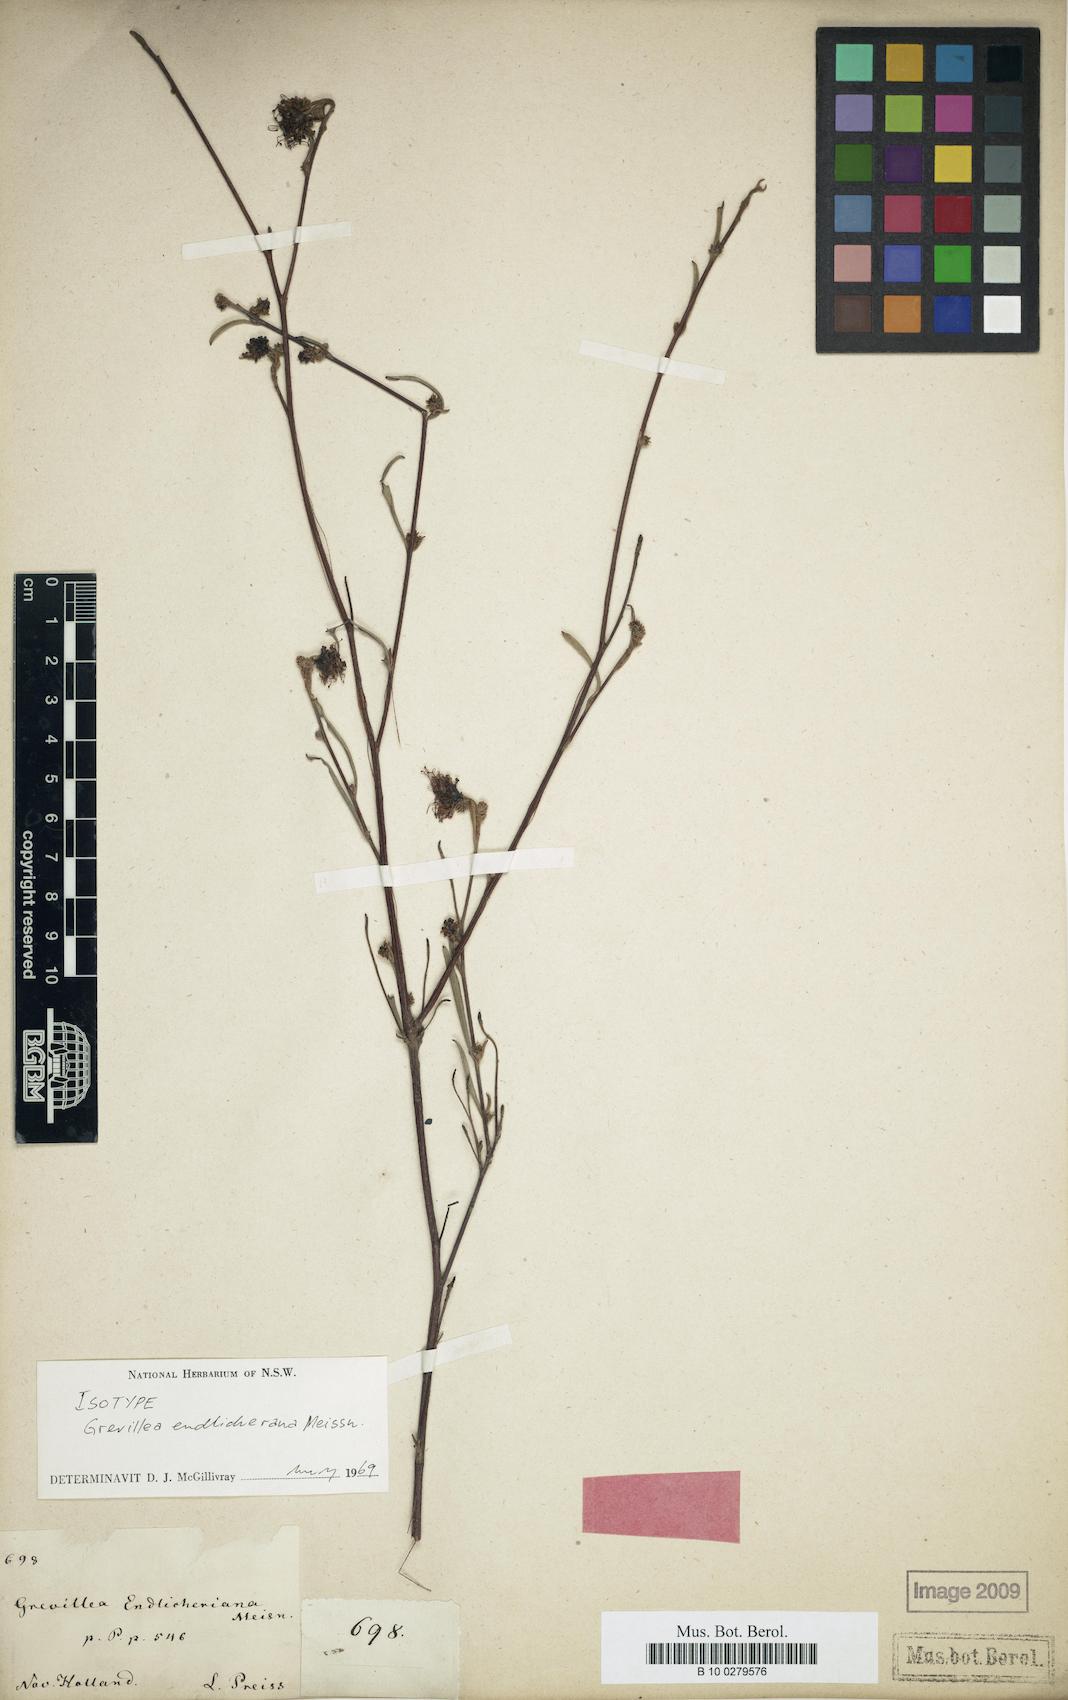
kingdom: Plantae
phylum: Tracheophyta
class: Magnoliopsida
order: Proteales
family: Proteaceae
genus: Grevillea
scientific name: Grevillea endlicheriana
